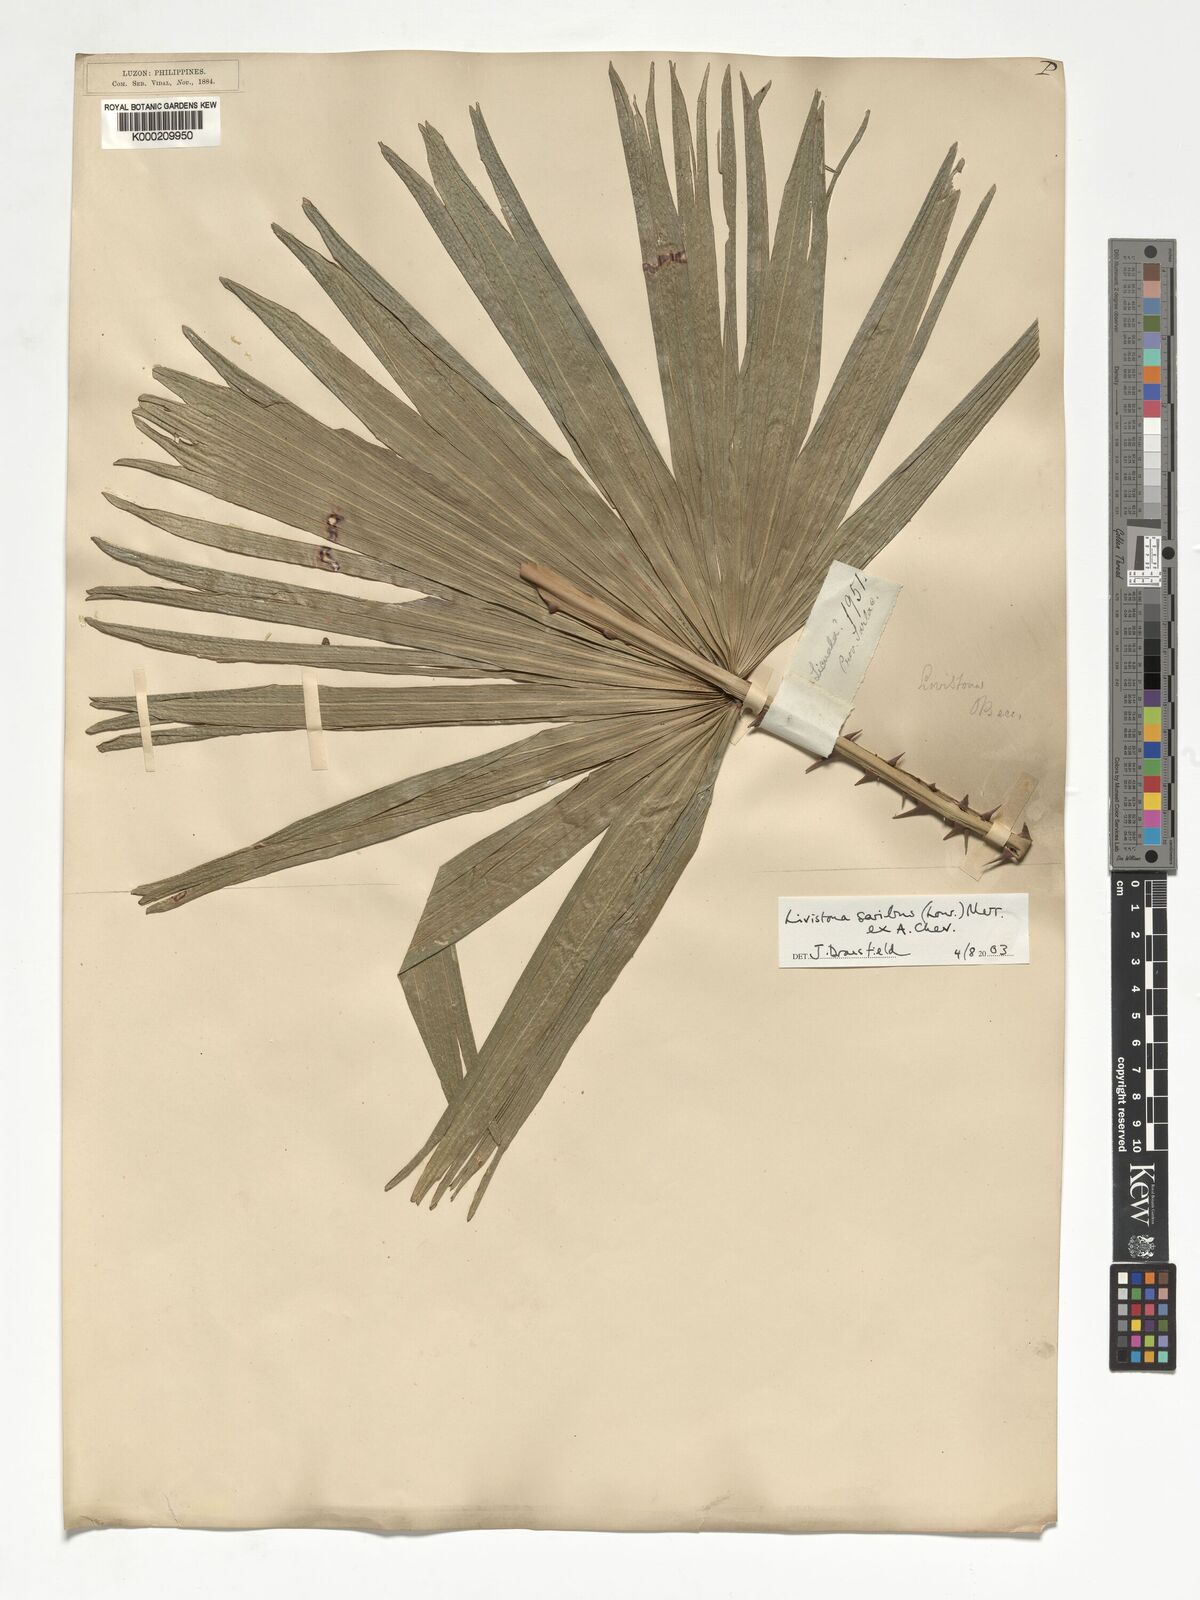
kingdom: Plantae
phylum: Tracheophyta
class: Liliopsida
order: Arecales
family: Arecaceae
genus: Livistona
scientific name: Livistona saribus
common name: Taraw palm
